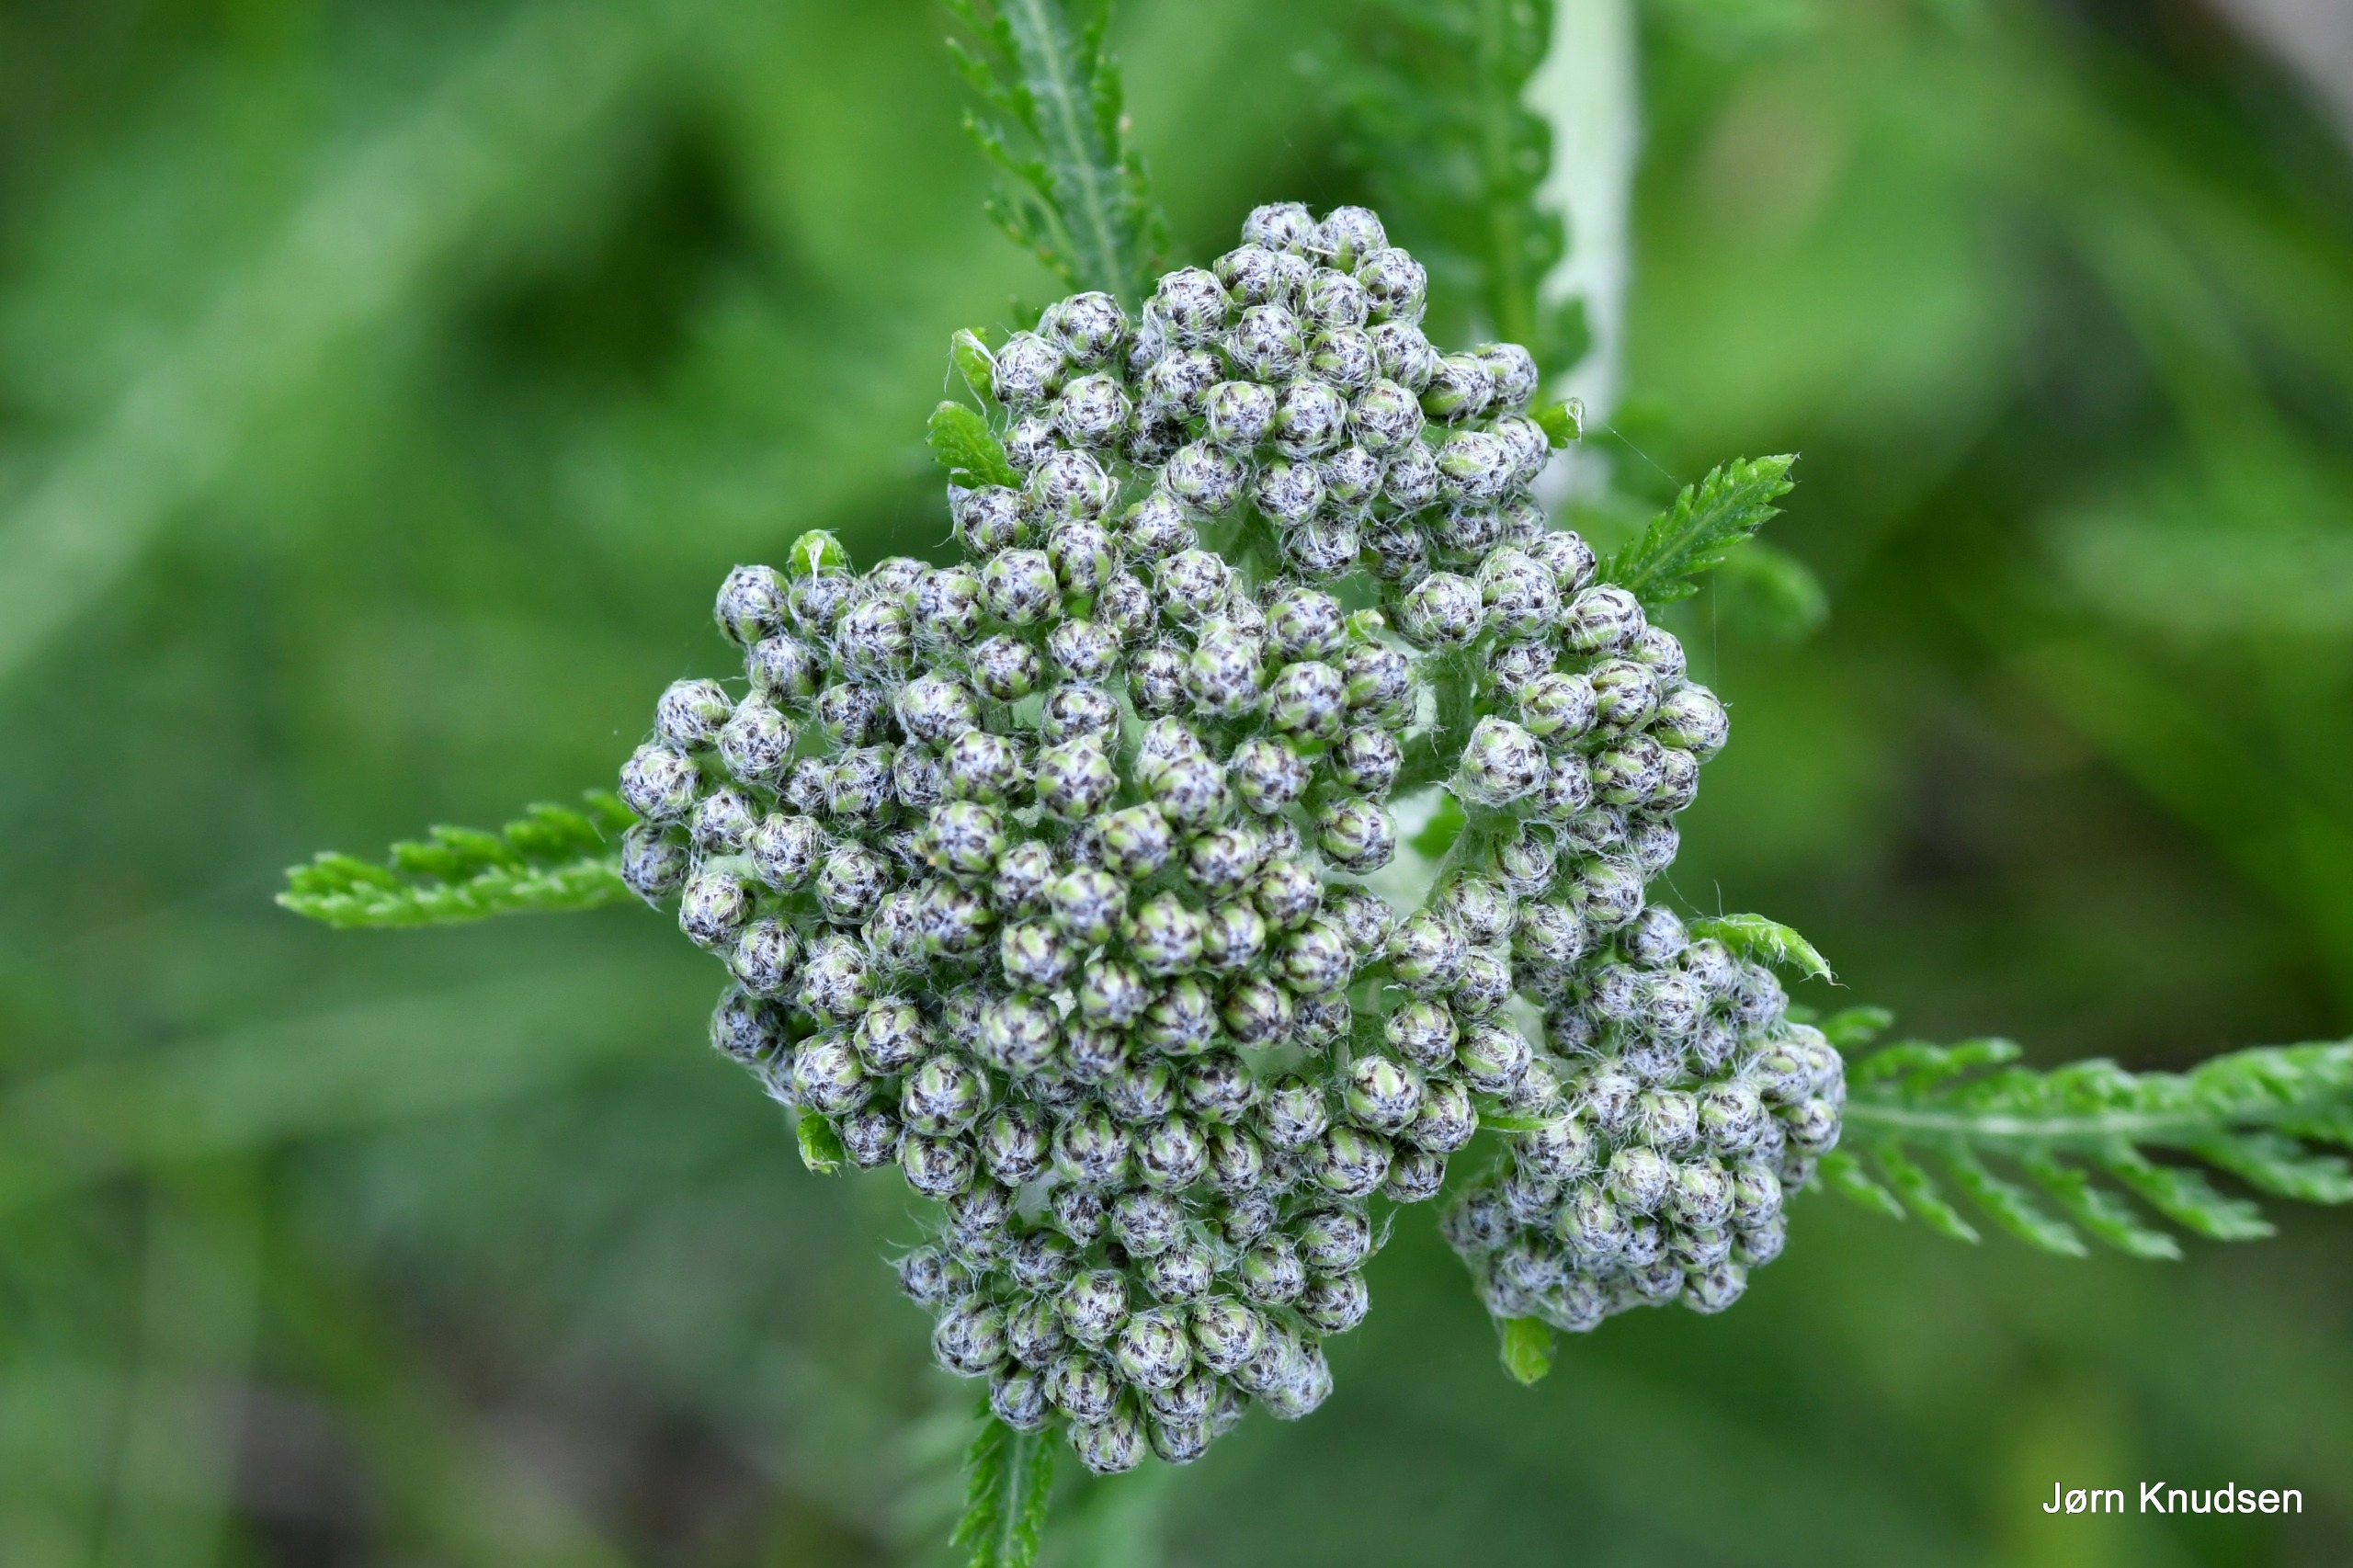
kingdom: Plantae
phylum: Tracheophyta
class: Magnoliopsida
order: Asterales
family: Asteraceae
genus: Achillea
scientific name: Achillea millefolium
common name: Almindelig røllike
